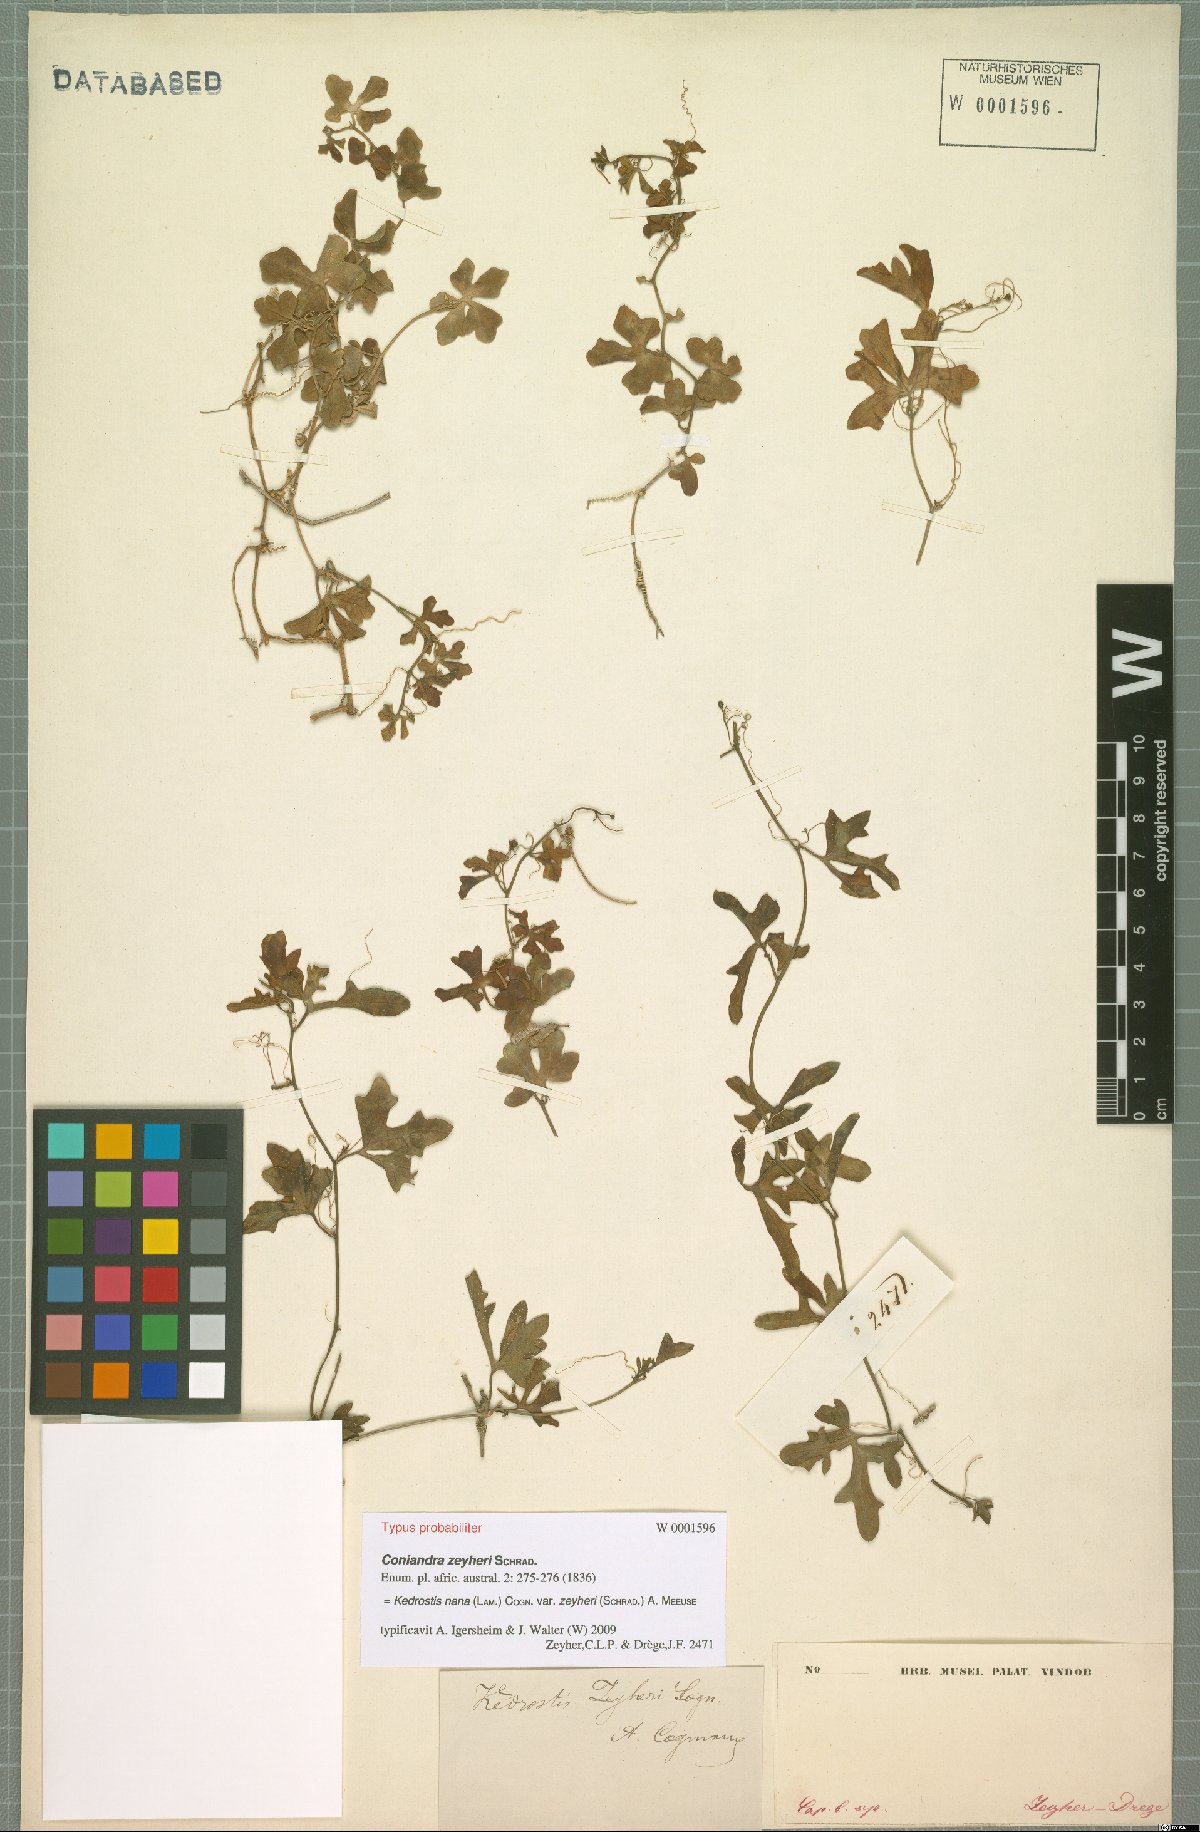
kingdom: Plantae
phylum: Tracheophyta
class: Magnoliopsida
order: Cucurbitales
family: Cucurbitaceae
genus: Kedrostis
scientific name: Kedrostis nana
